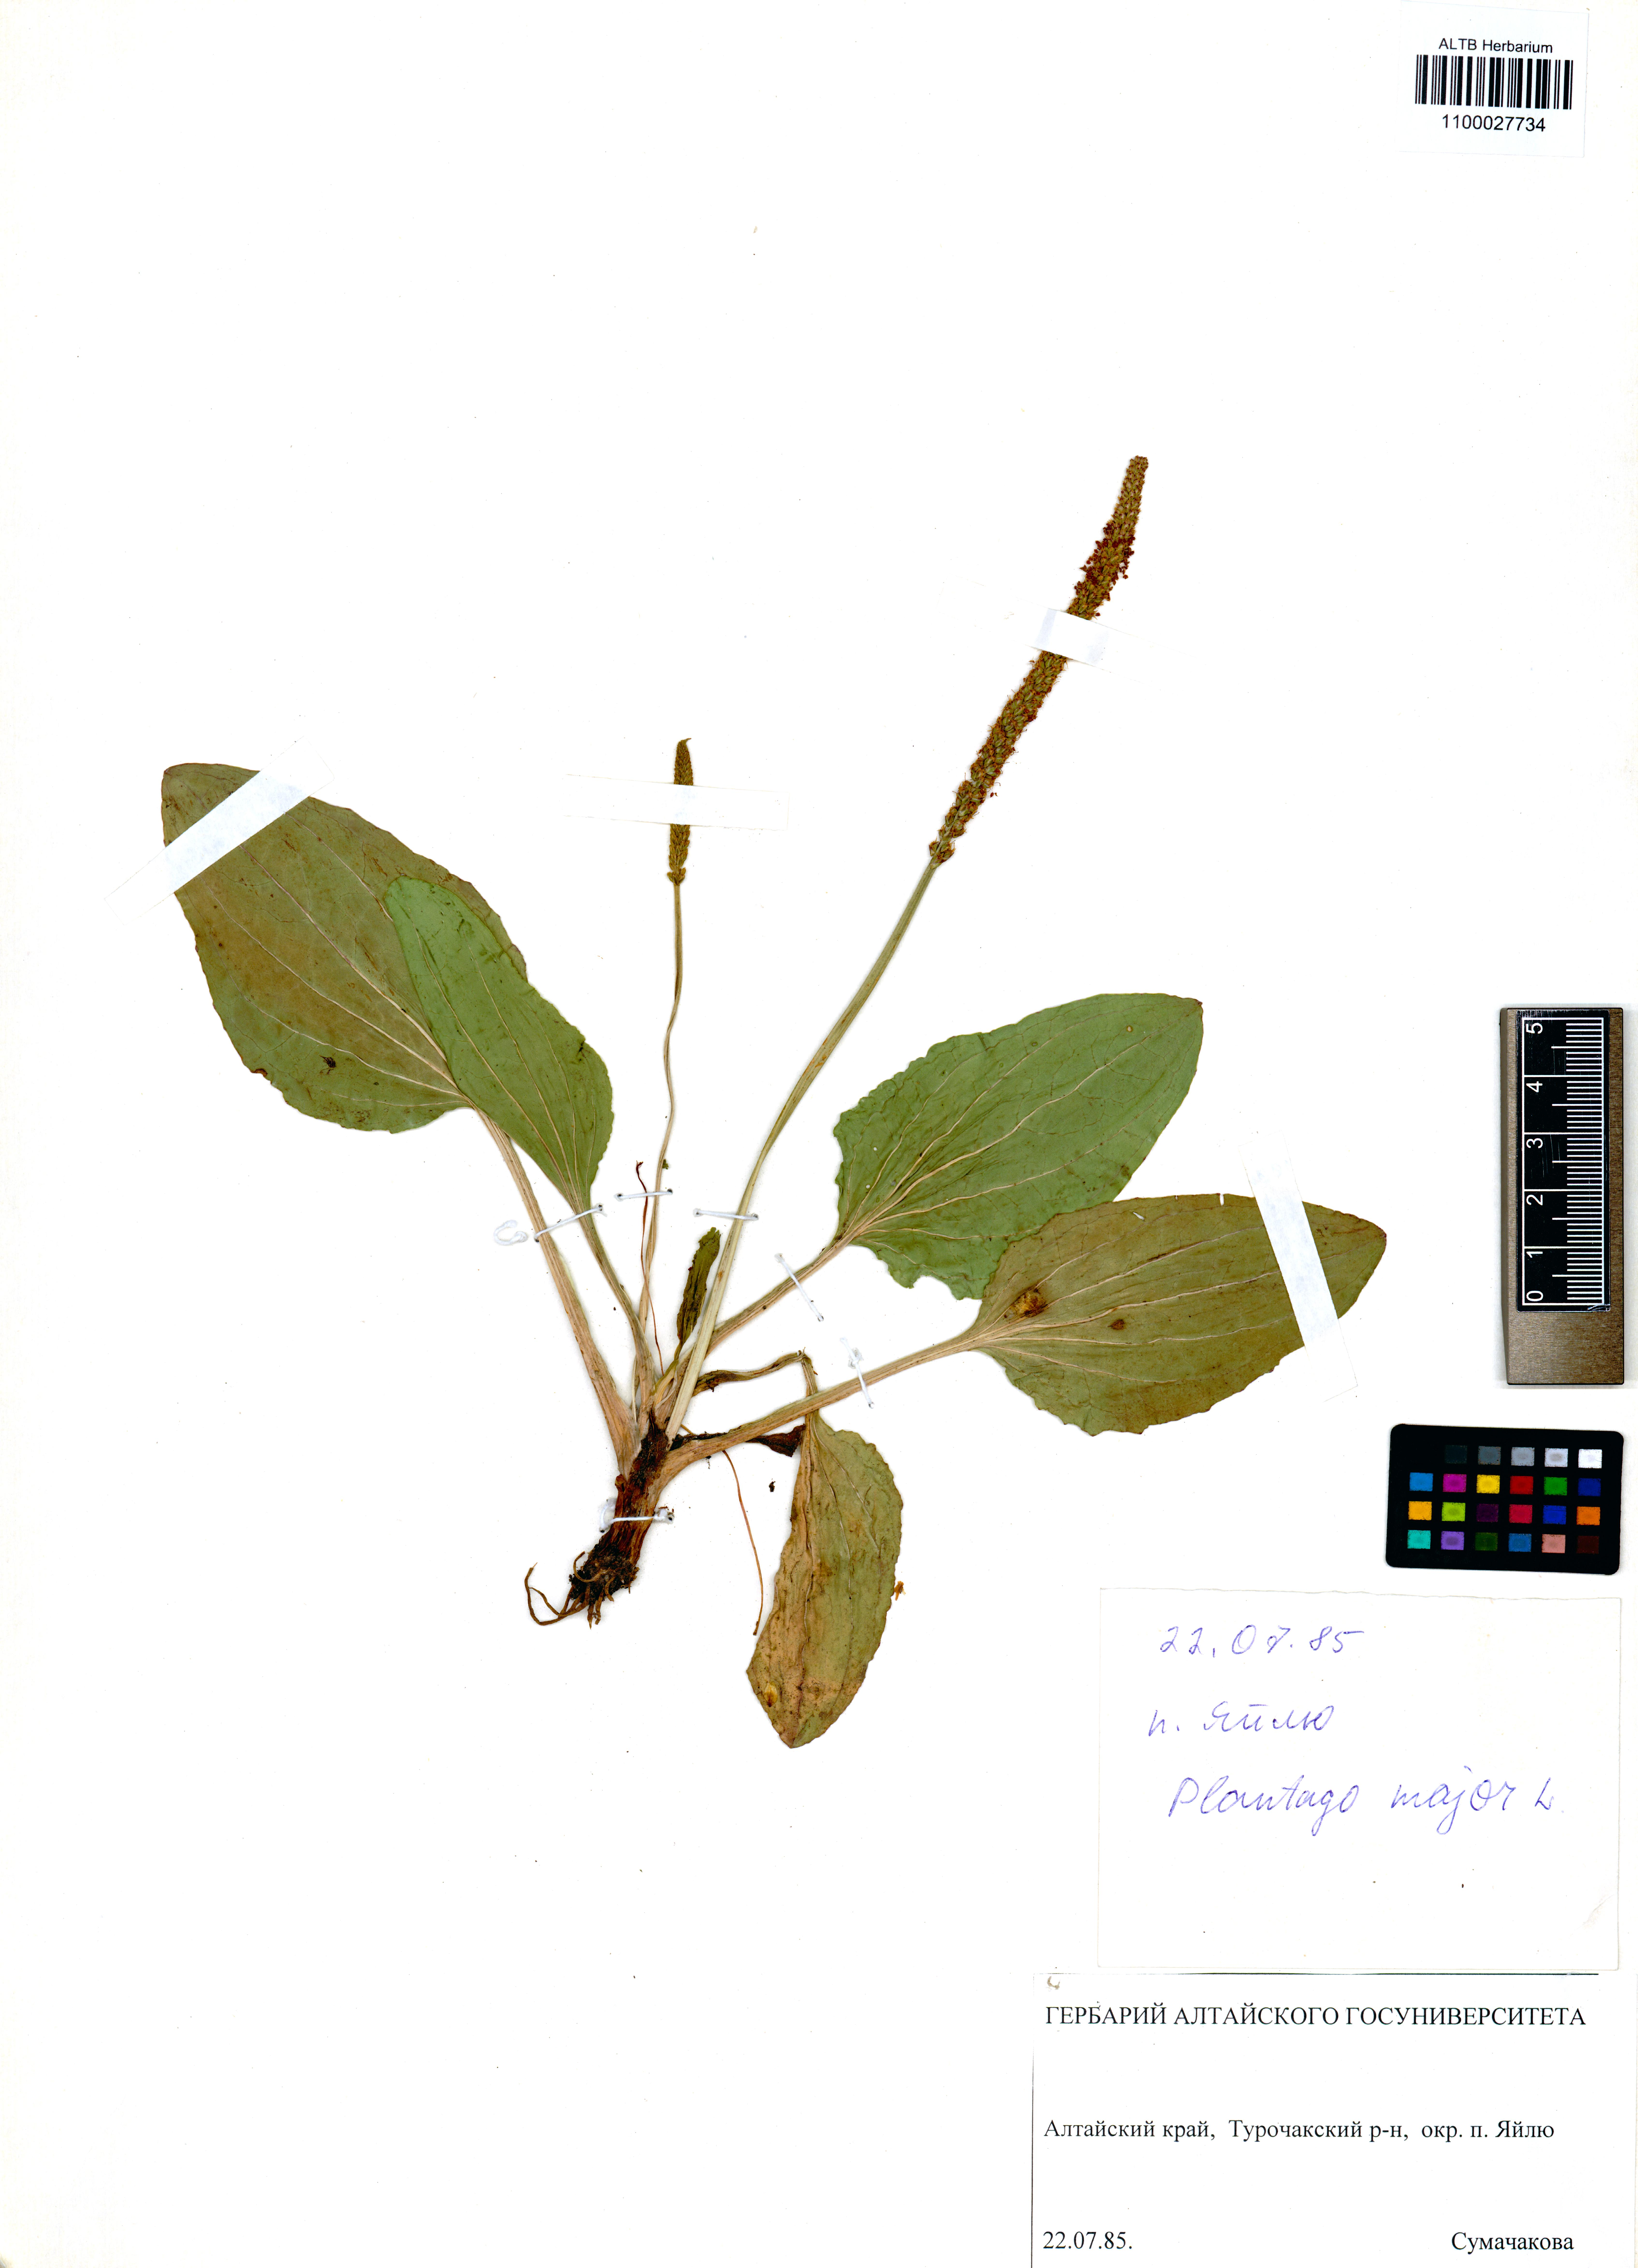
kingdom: Plantae
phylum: Tracheophyta
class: Magnoliopsida
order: Lamiales
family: Plantaginaceae
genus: Plantago
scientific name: Plantago major
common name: Common plantain
